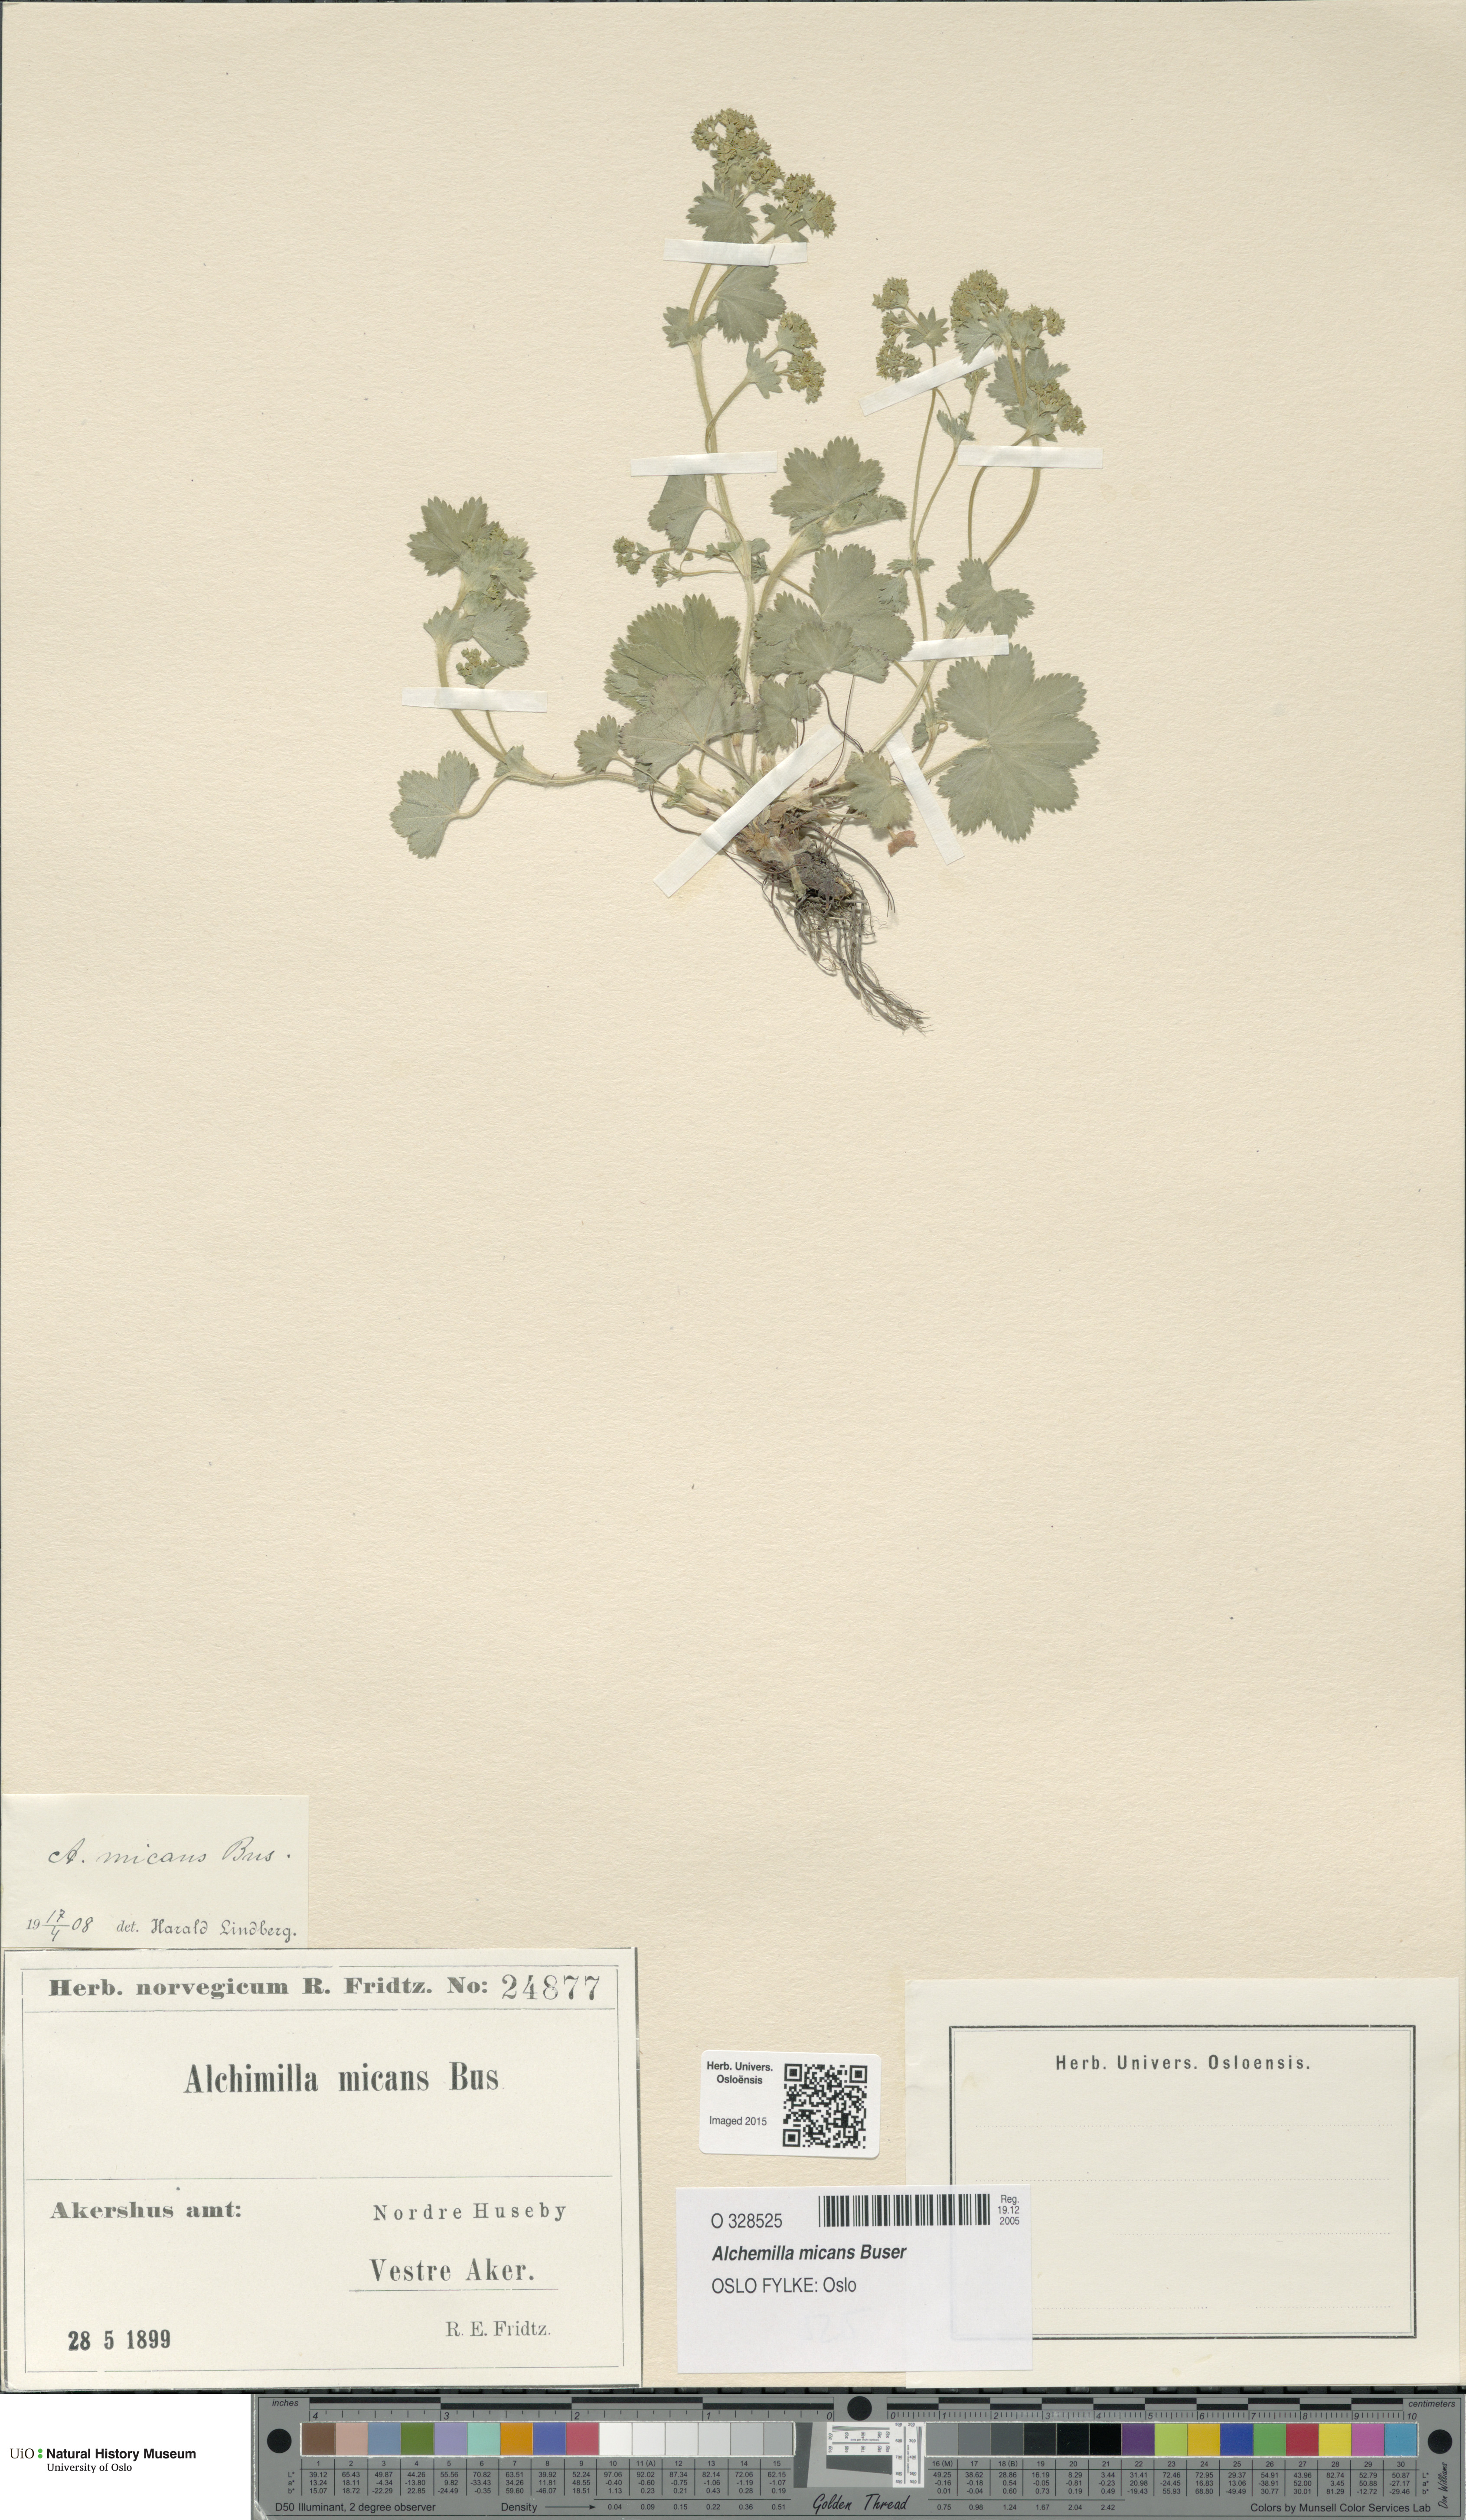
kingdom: Plantae
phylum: Tracheophyta
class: Magnoliopsida
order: Rosales
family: Rosaceae
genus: Alchemilla
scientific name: Alchemilla micans
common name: Gleaming lady's mantle
